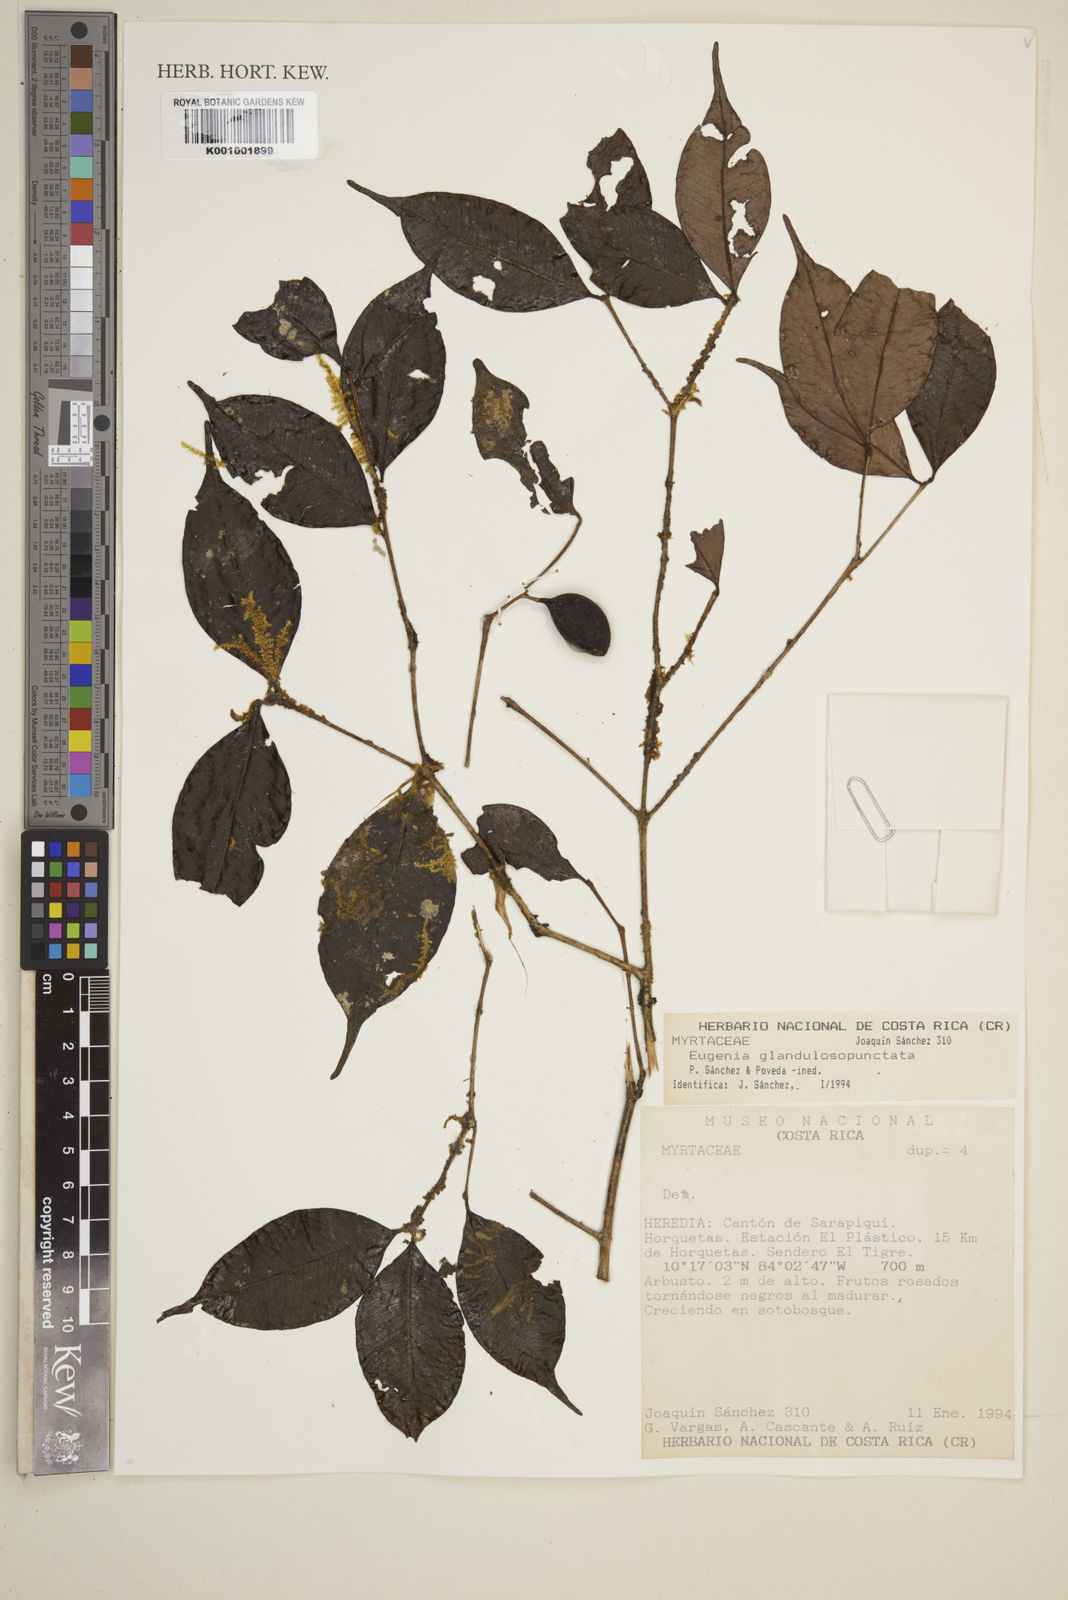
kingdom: Plantae
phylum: Tracheophyta
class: Magnoliopsida
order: Myrtales
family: Myrtaceae
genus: Eugenia
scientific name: Eugenia
